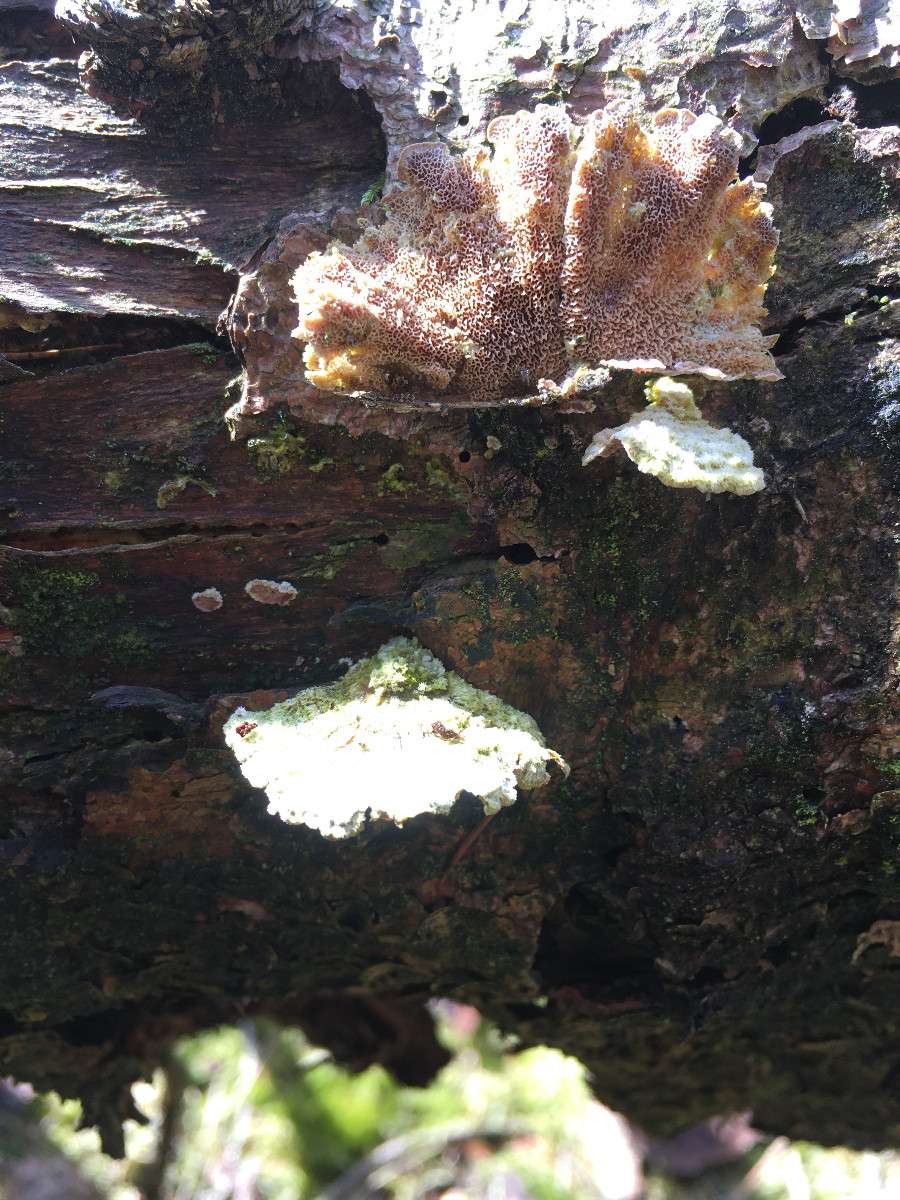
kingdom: Fungi
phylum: Basidiomycota
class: Agaricomycetes
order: Hymenochaetales
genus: Trichaptum
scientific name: Trichaptum abietinum
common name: almindelig violporesvamp
